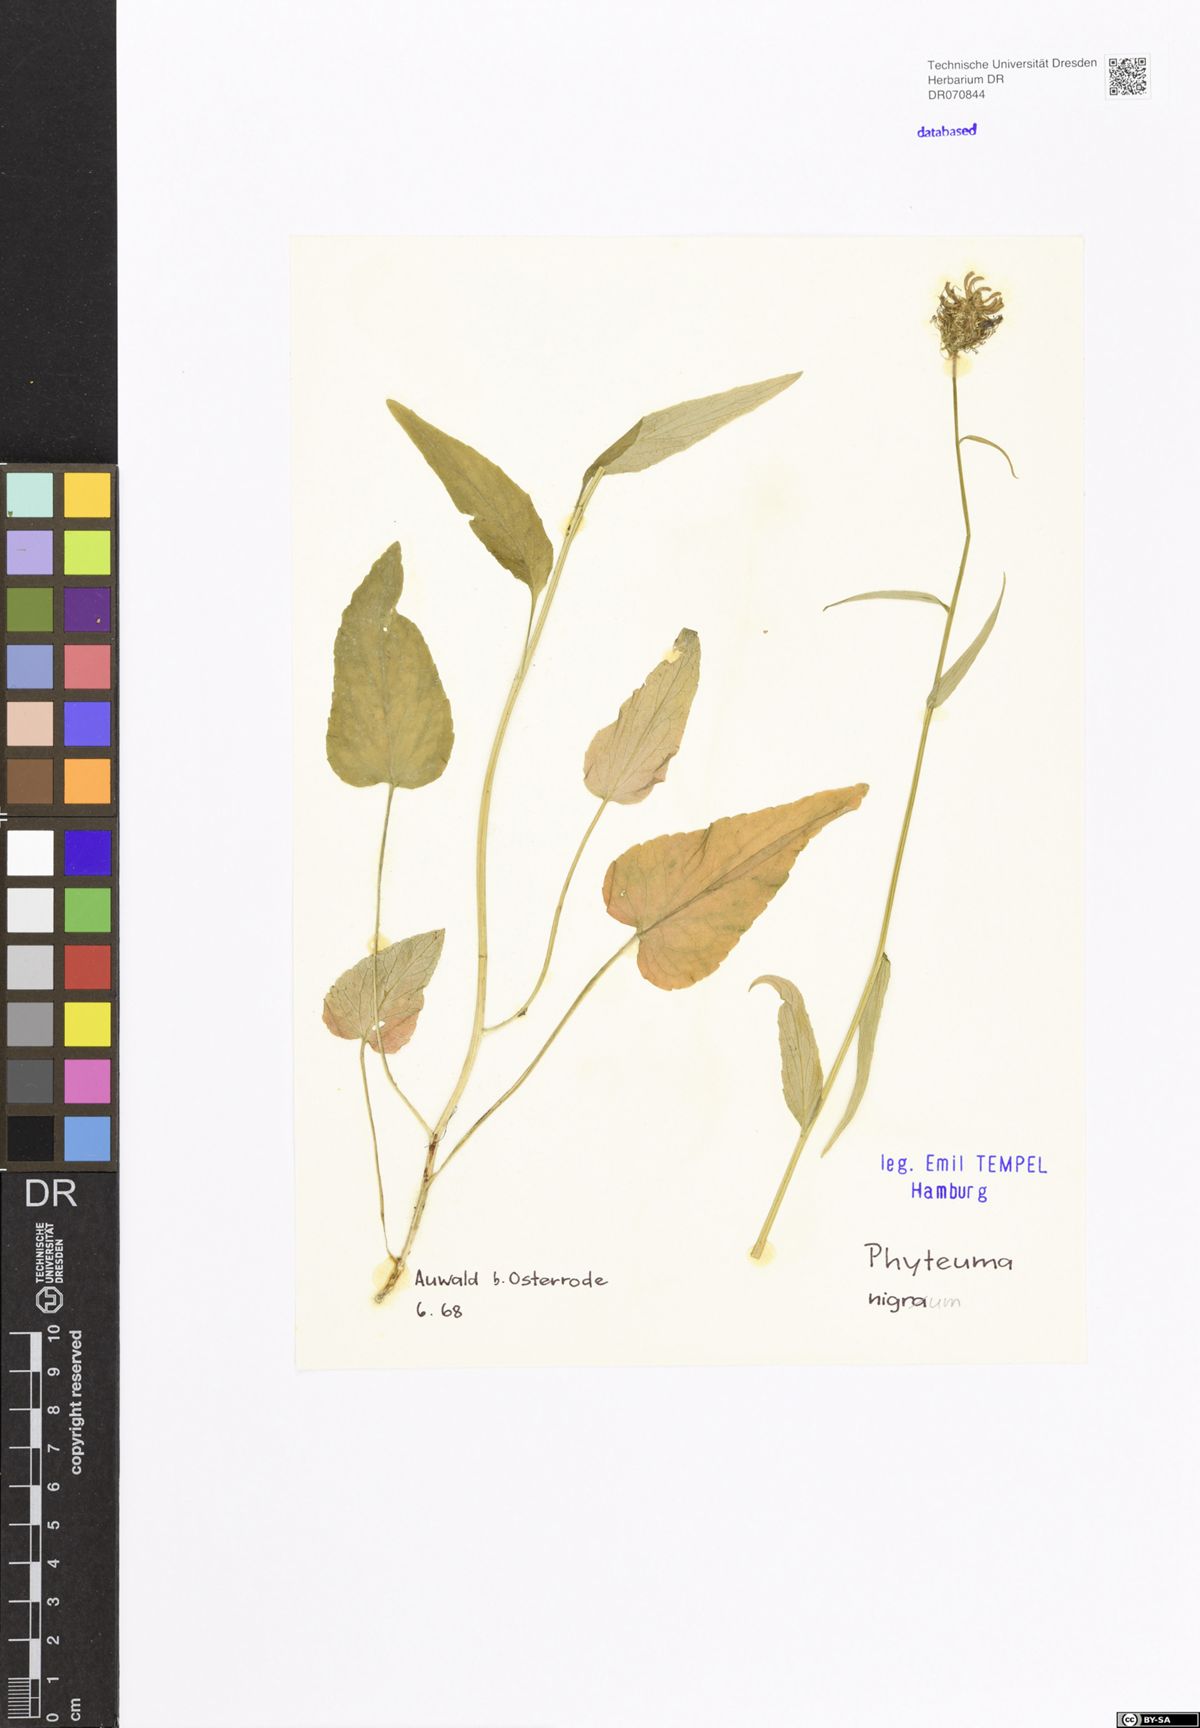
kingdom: Plantae
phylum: Tracheophyta
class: Magnoliopsida
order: Asterales
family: Campanulaceae
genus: Phyteuma
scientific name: Phyteuma nigrum
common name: Black rampion
